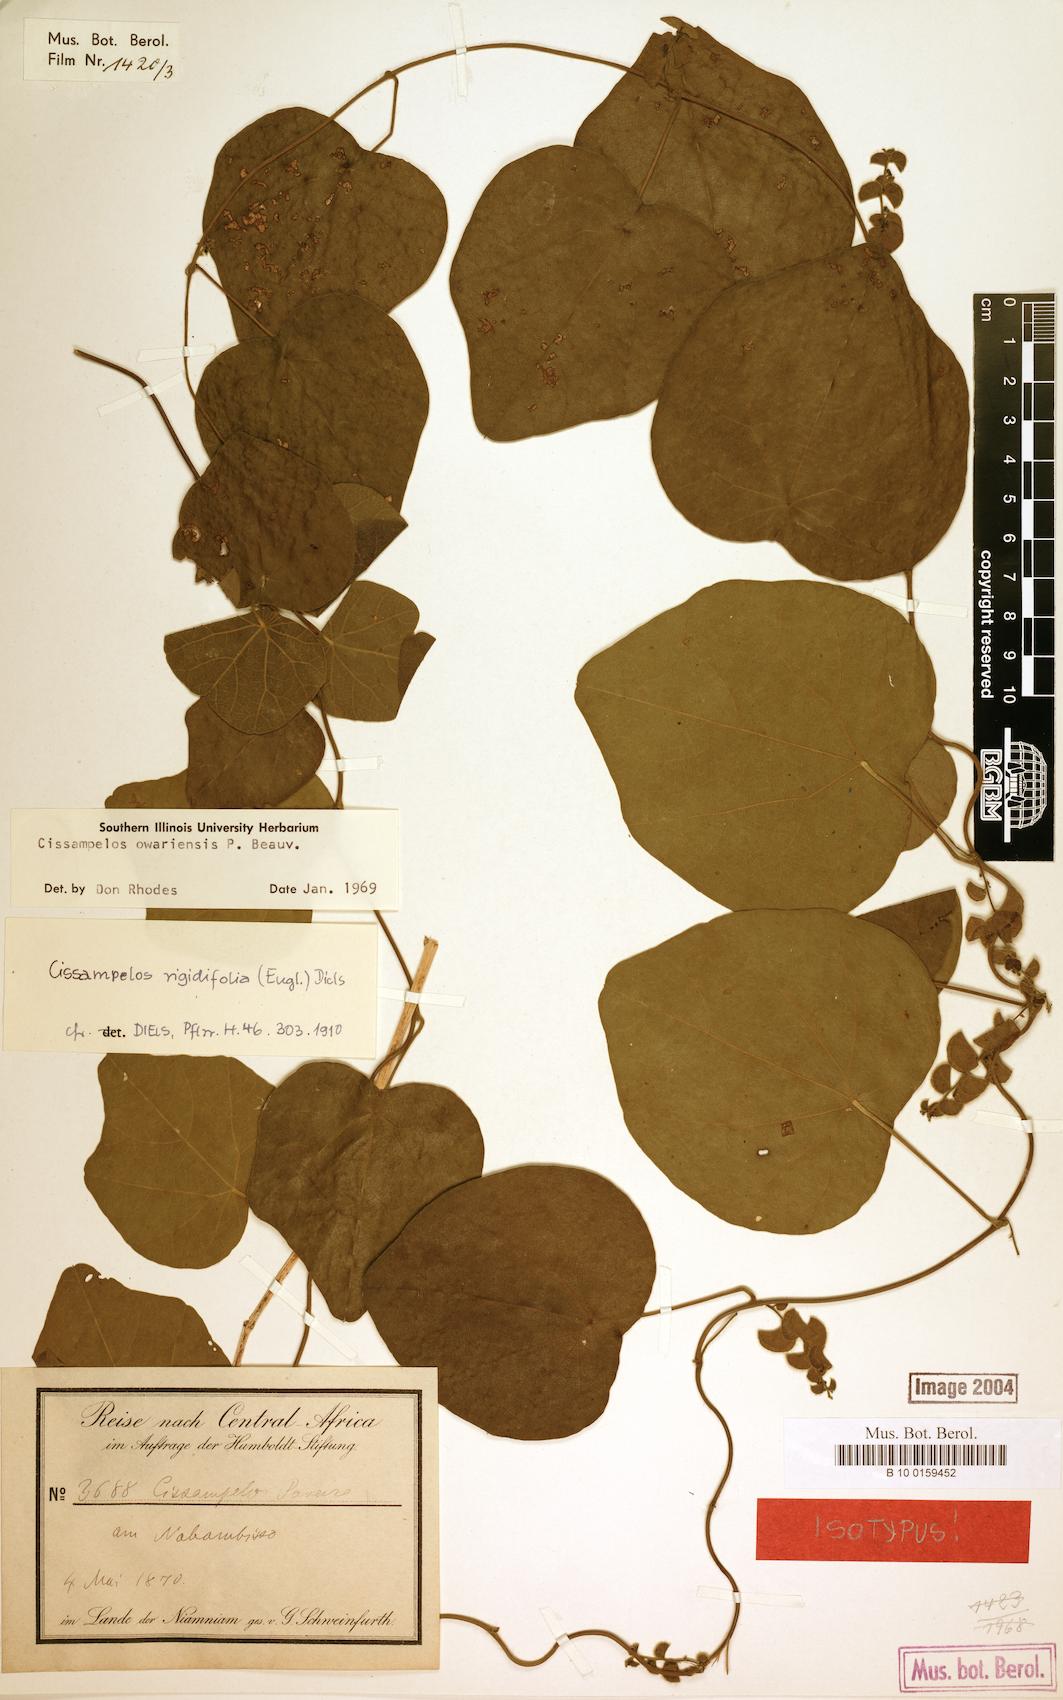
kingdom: Plantae
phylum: Tracheophyta
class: Magnoliopsida
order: Ranunculales
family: Menispermaceae
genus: Cissampelos
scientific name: Cissampelos owariensis
